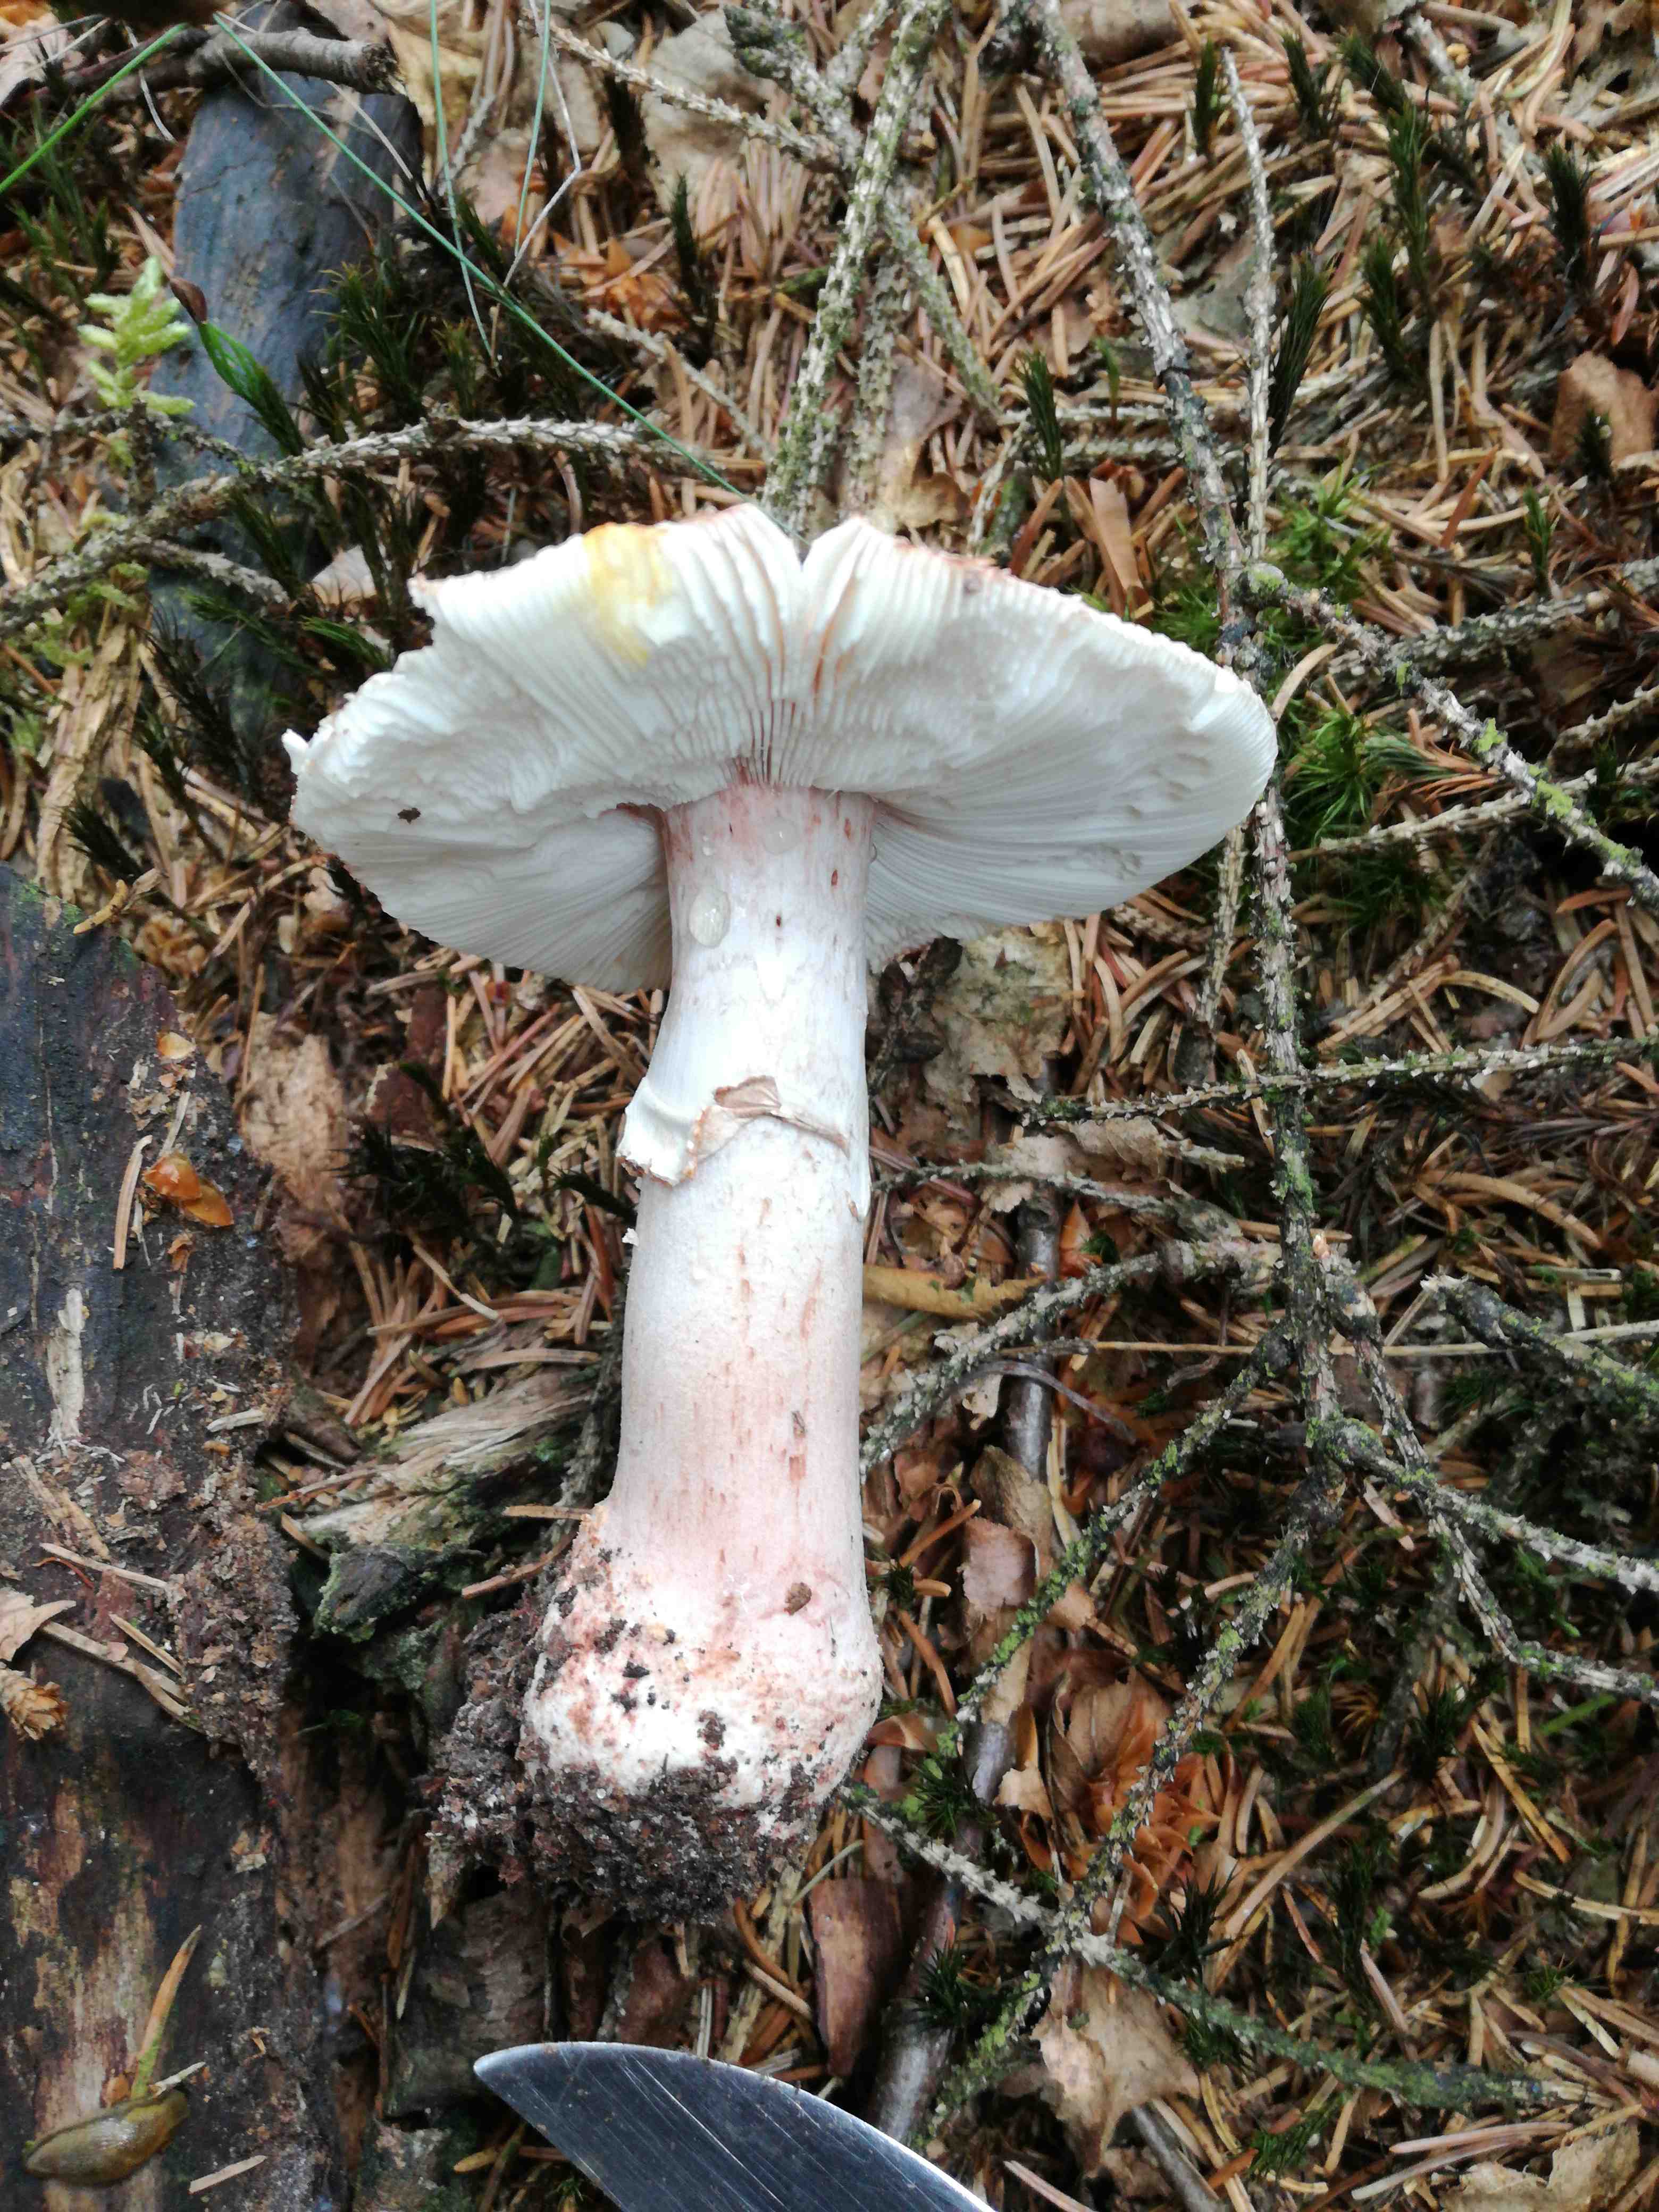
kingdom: Fungi
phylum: Basidiomycota
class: Agaricomycetes
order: Agaricales
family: Amanitaceae
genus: Amanita
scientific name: Amanita rubescens
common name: rødmende fluesvamp
